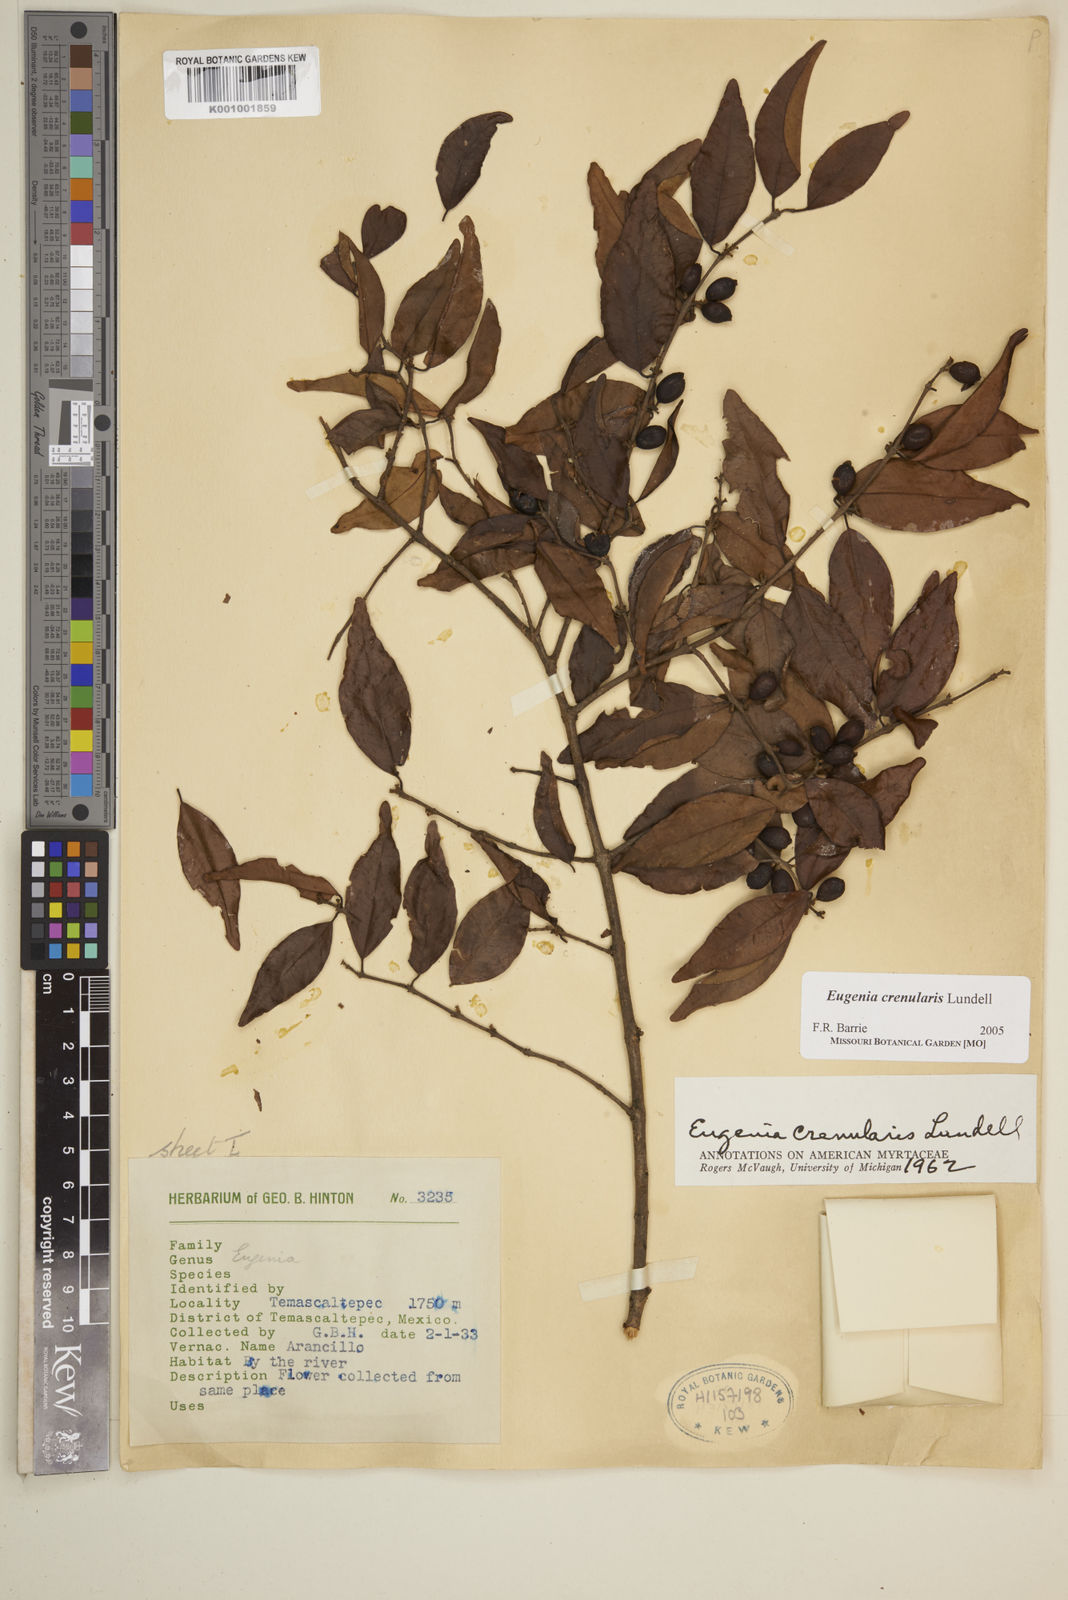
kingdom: Plantae
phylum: Tracheophyta
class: Magnoliopsida
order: Myrtales
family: Myrtaceae
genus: Eugenia
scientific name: Eugenia crenularis
